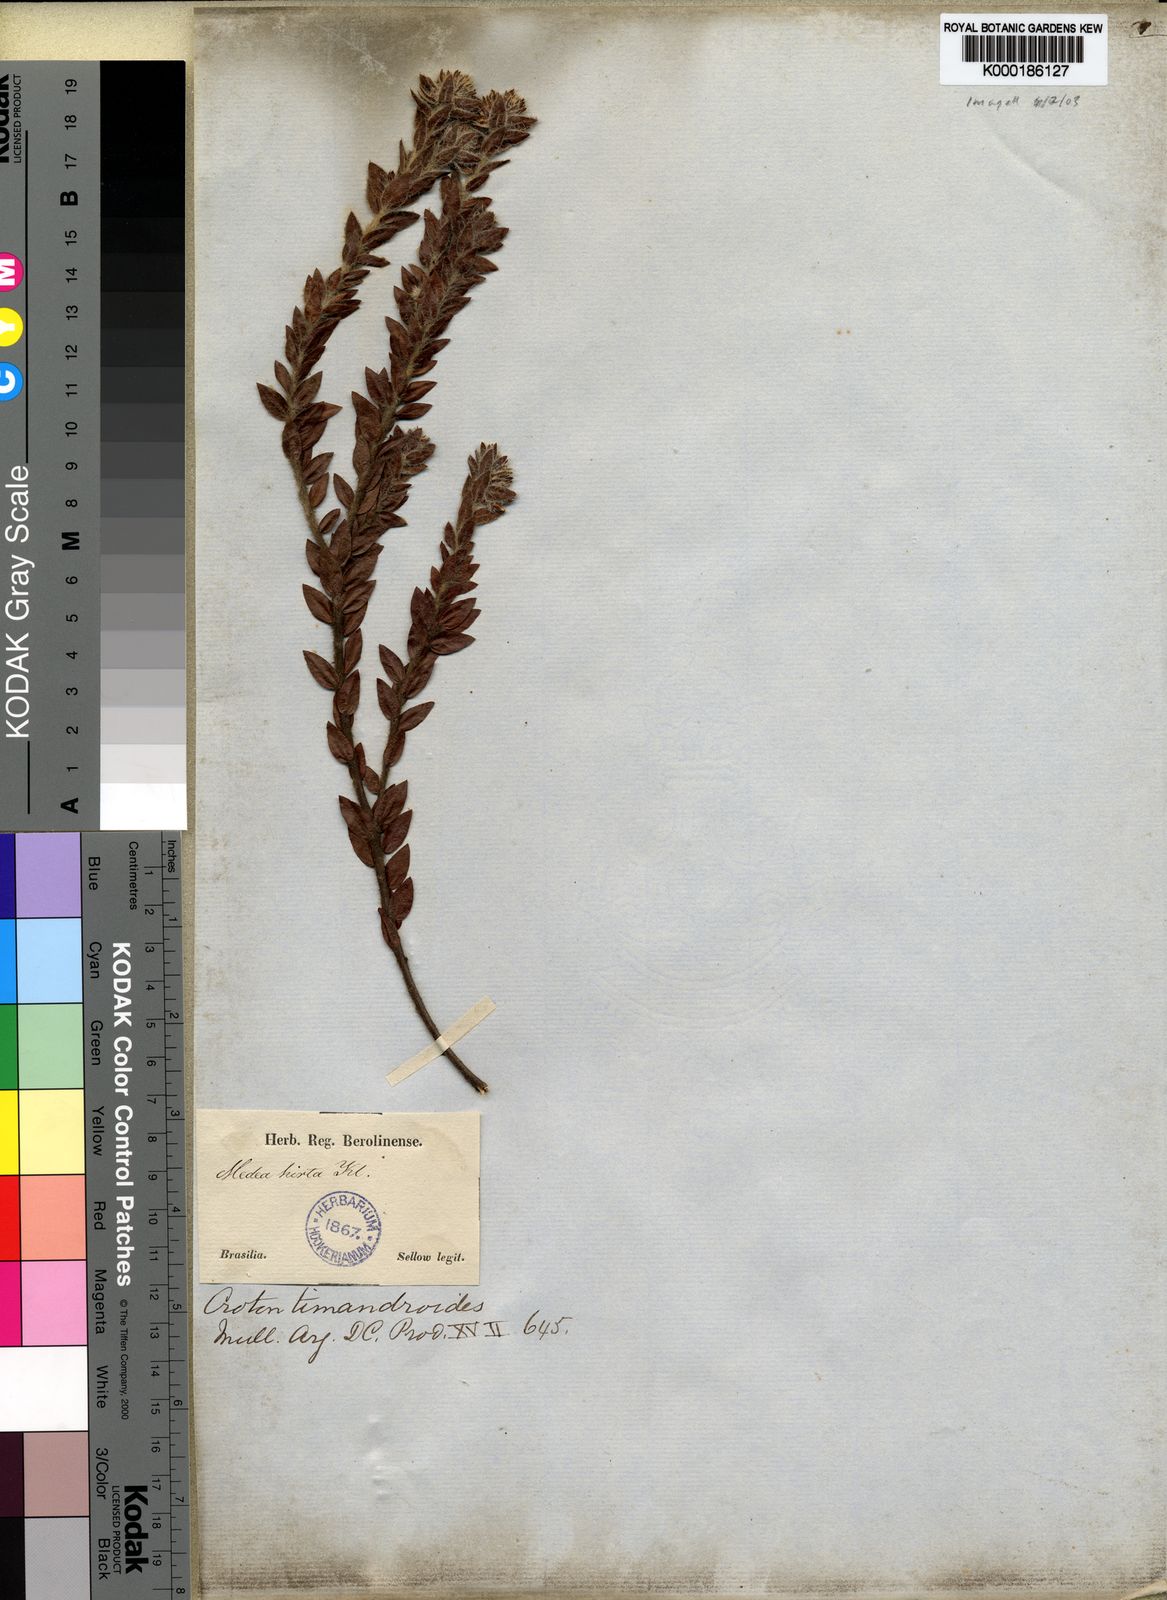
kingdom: Plantae
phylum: Tracheophyta
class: Magnoliopsida
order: Malpighiales
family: Euphorbiaceae
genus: Croton
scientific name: Croton
